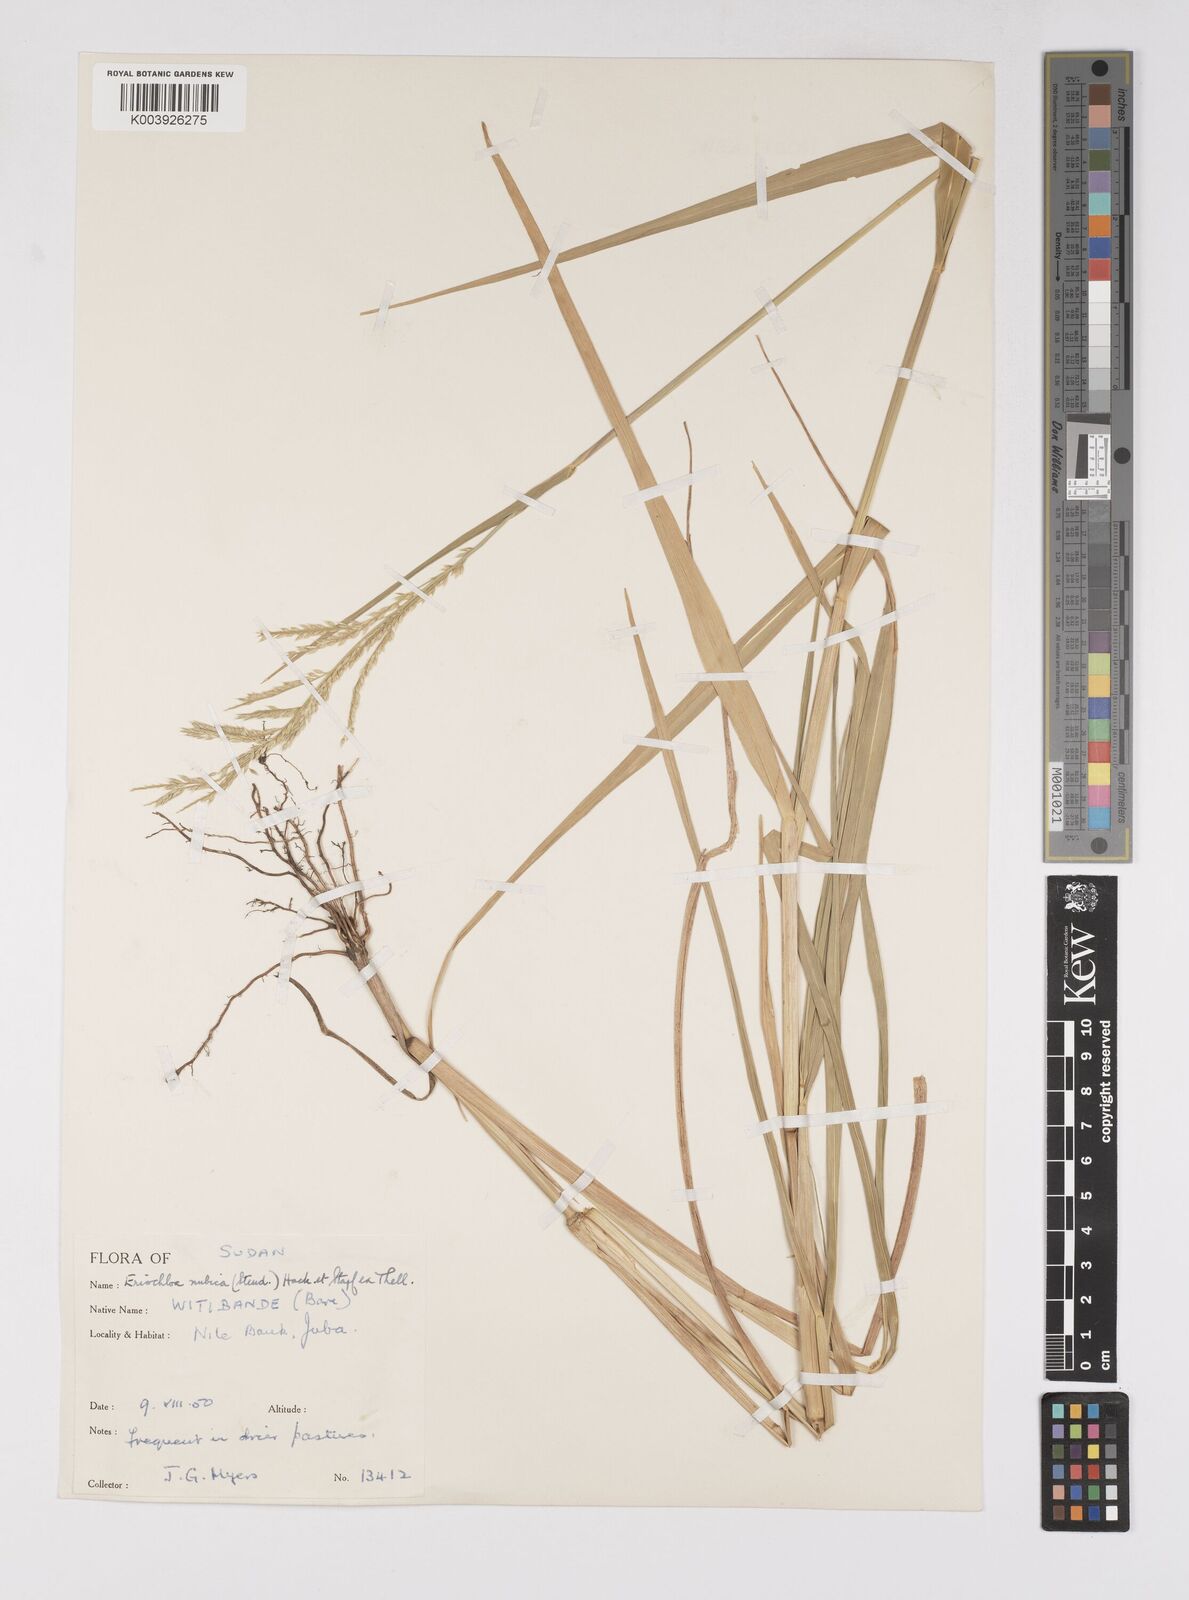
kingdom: Plantae
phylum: Tracheophyta
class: Liliopsida
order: Poales
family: Poaceae
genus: Eriochloa
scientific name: Eriochloa barbatus
